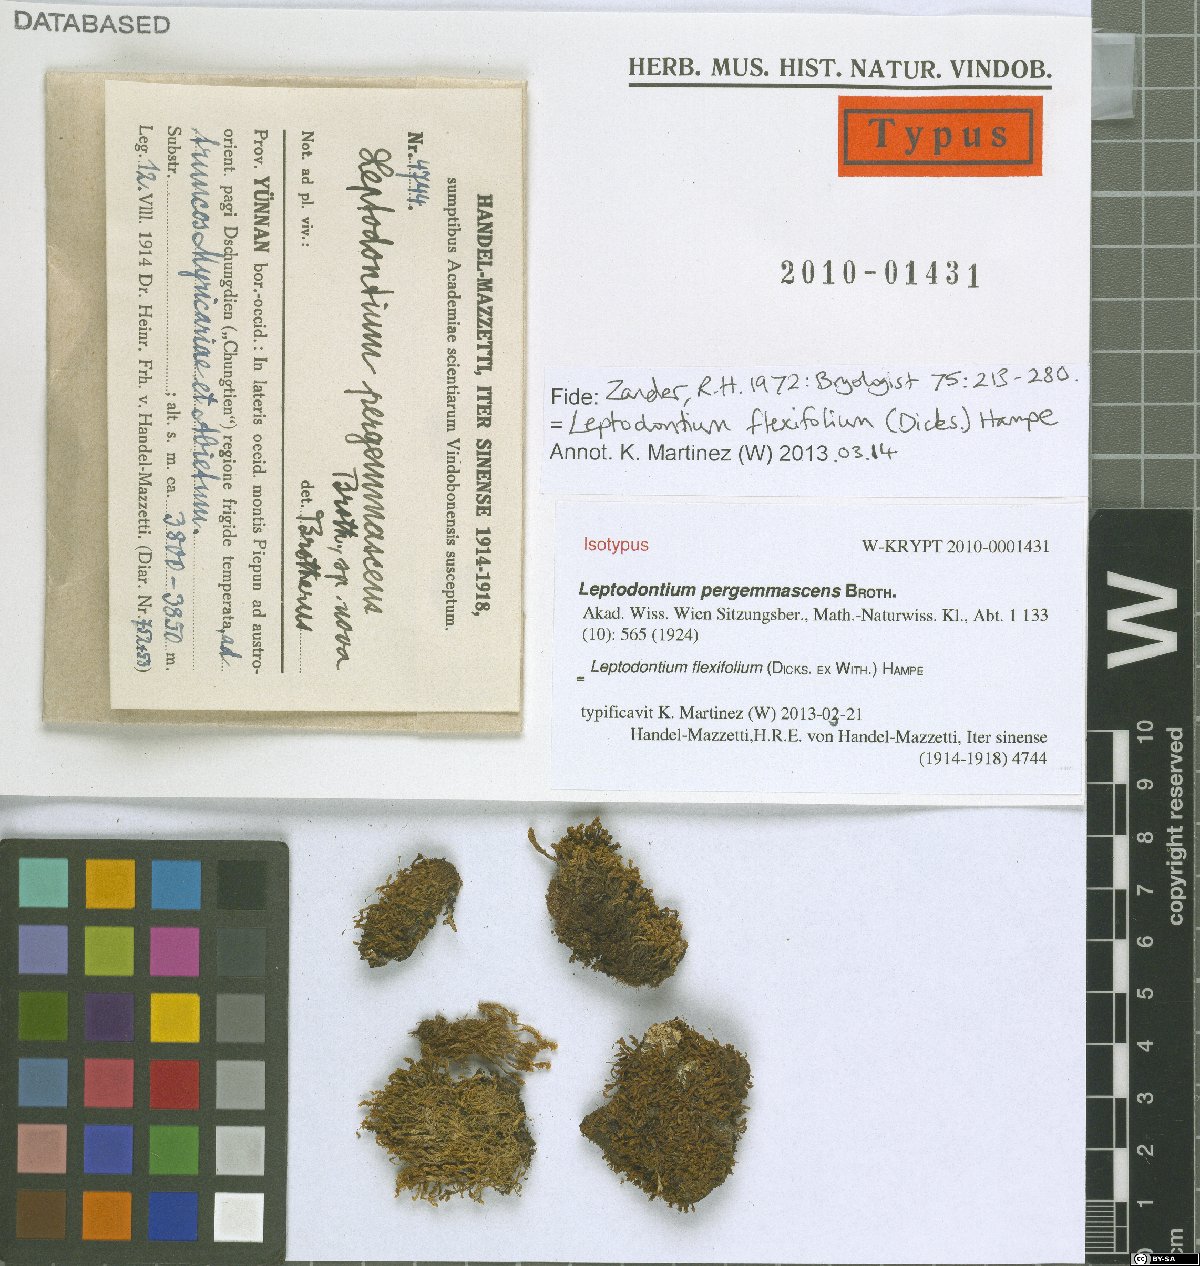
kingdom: Plantae
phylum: Bryophyta
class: Bryopsida
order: Pottiales
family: Pottiaceae
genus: Leptodontium
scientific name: Leptodontium flexifolium
